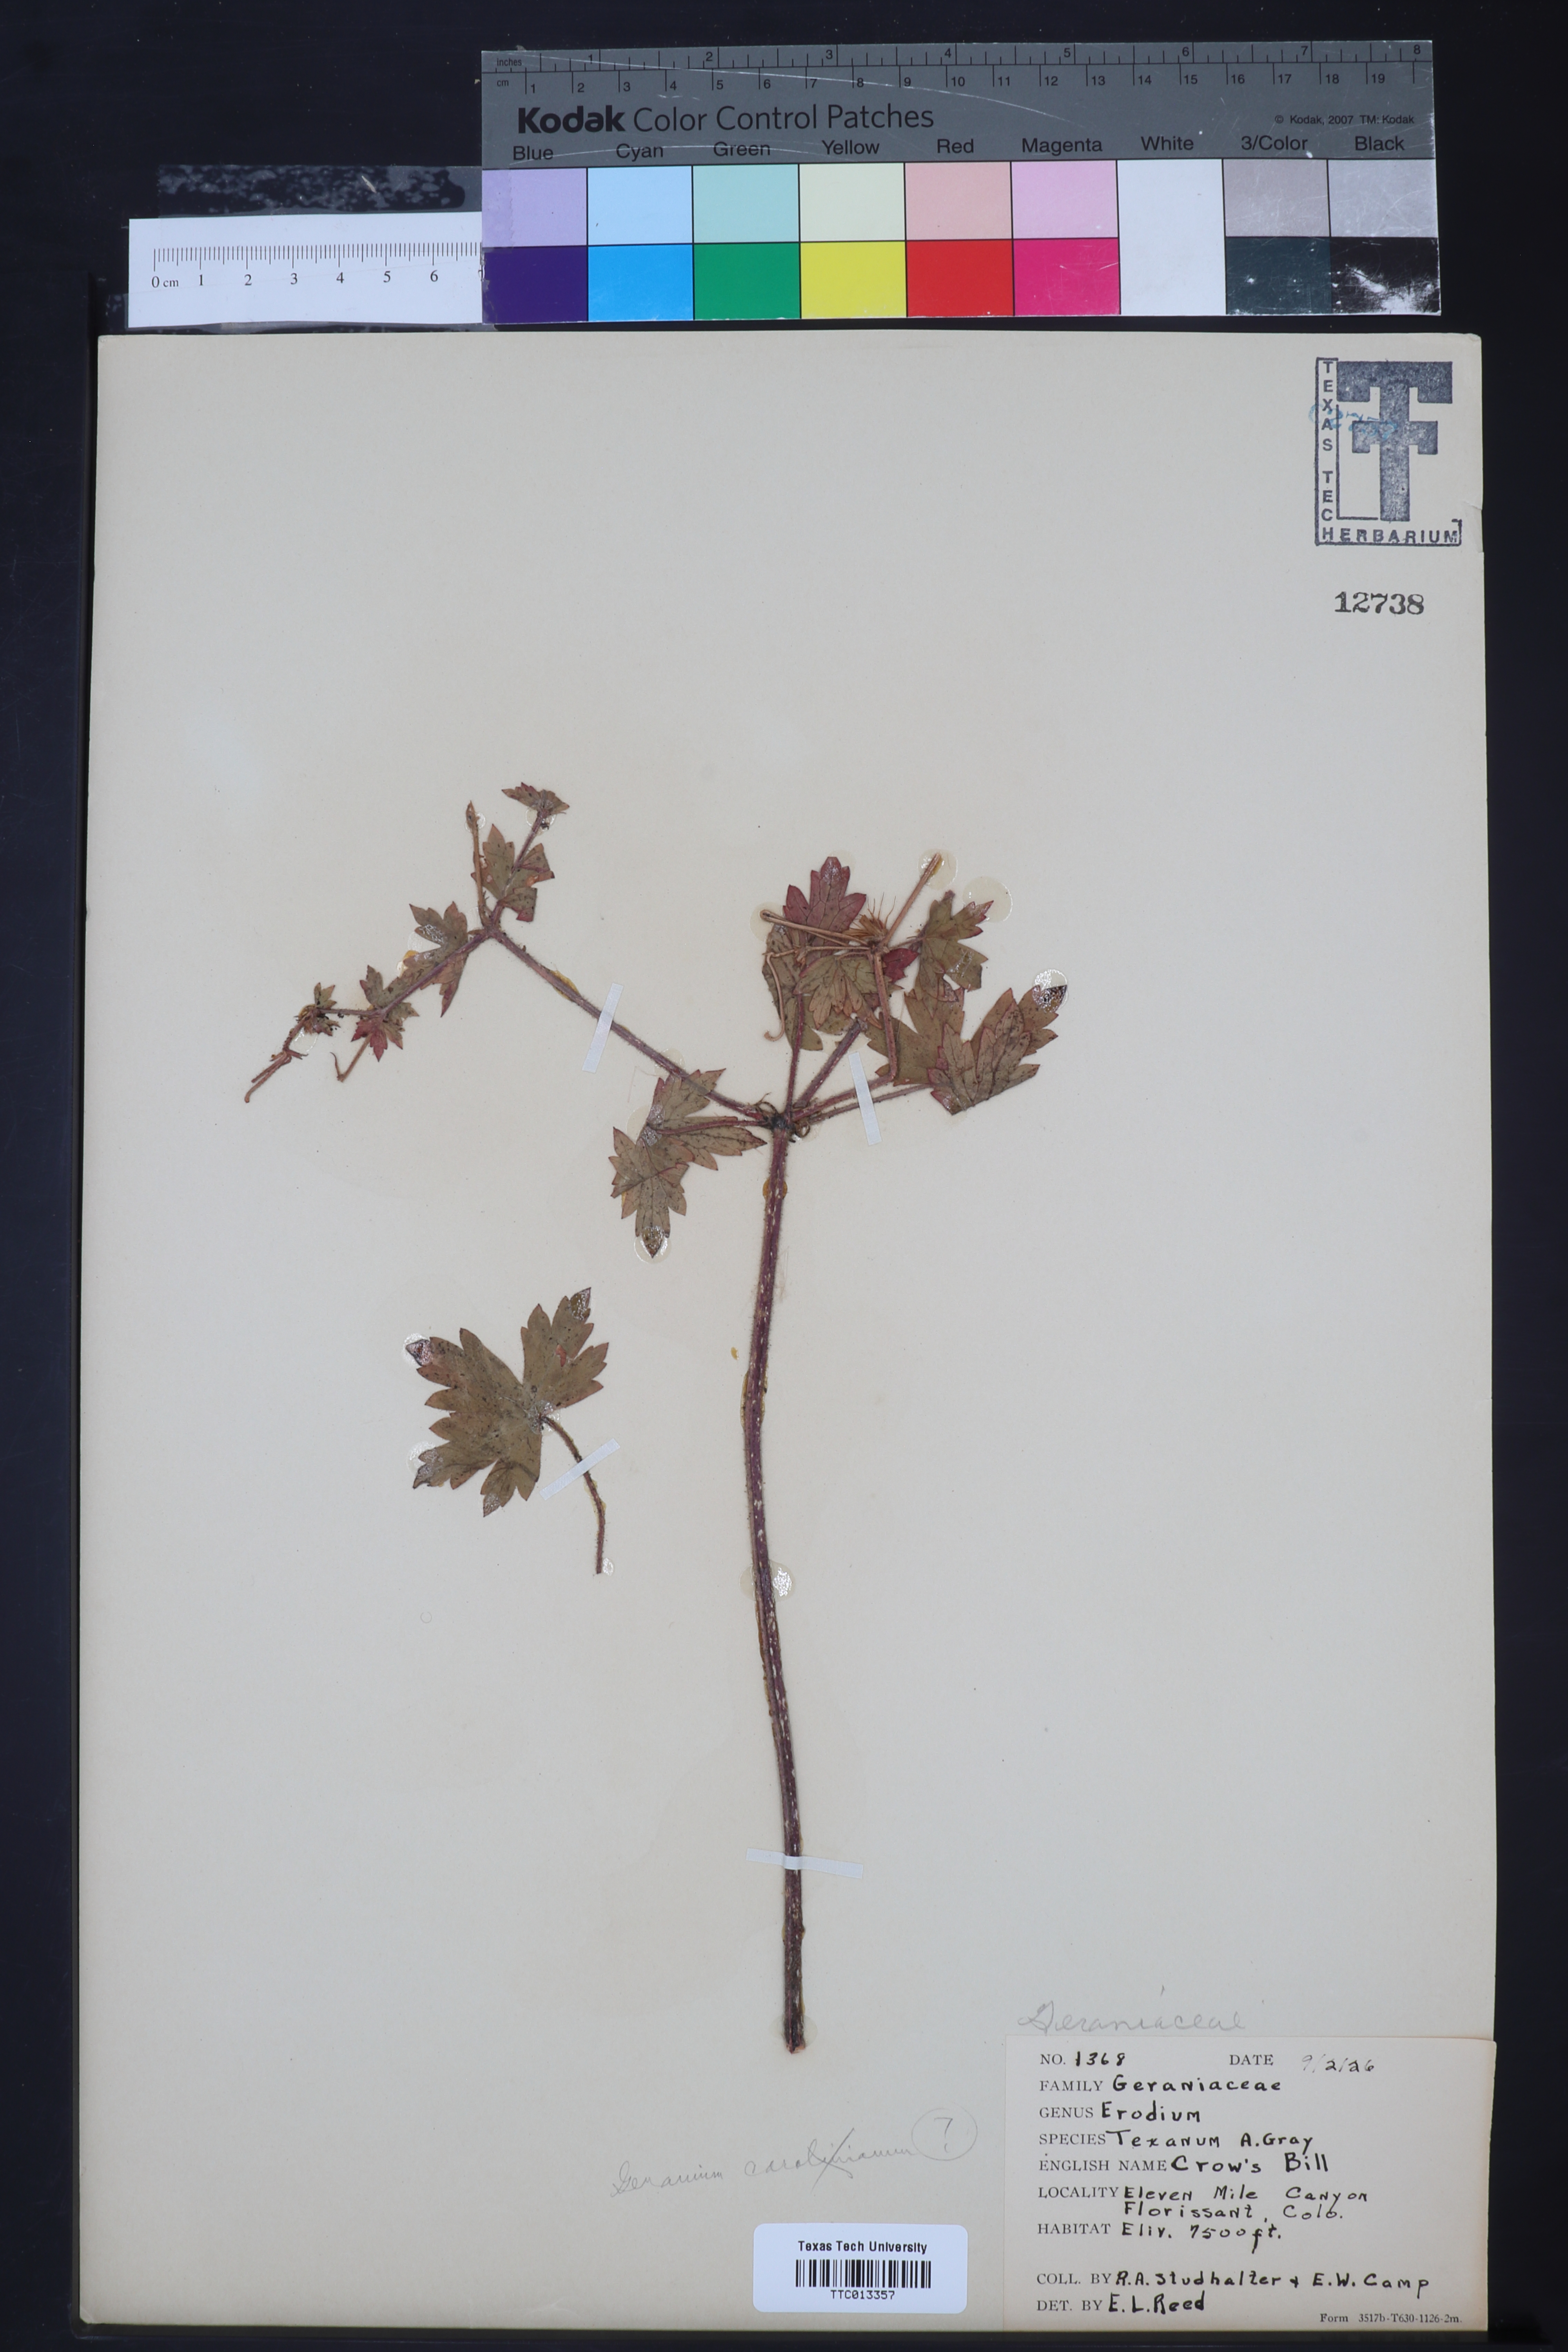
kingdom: Plantae
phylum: Tracheophyta
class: Magnoliopsida
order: Geraniales
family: Geraniaceae
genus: Erodium
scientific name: Erodium texanum
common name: Texas stork's-bill
